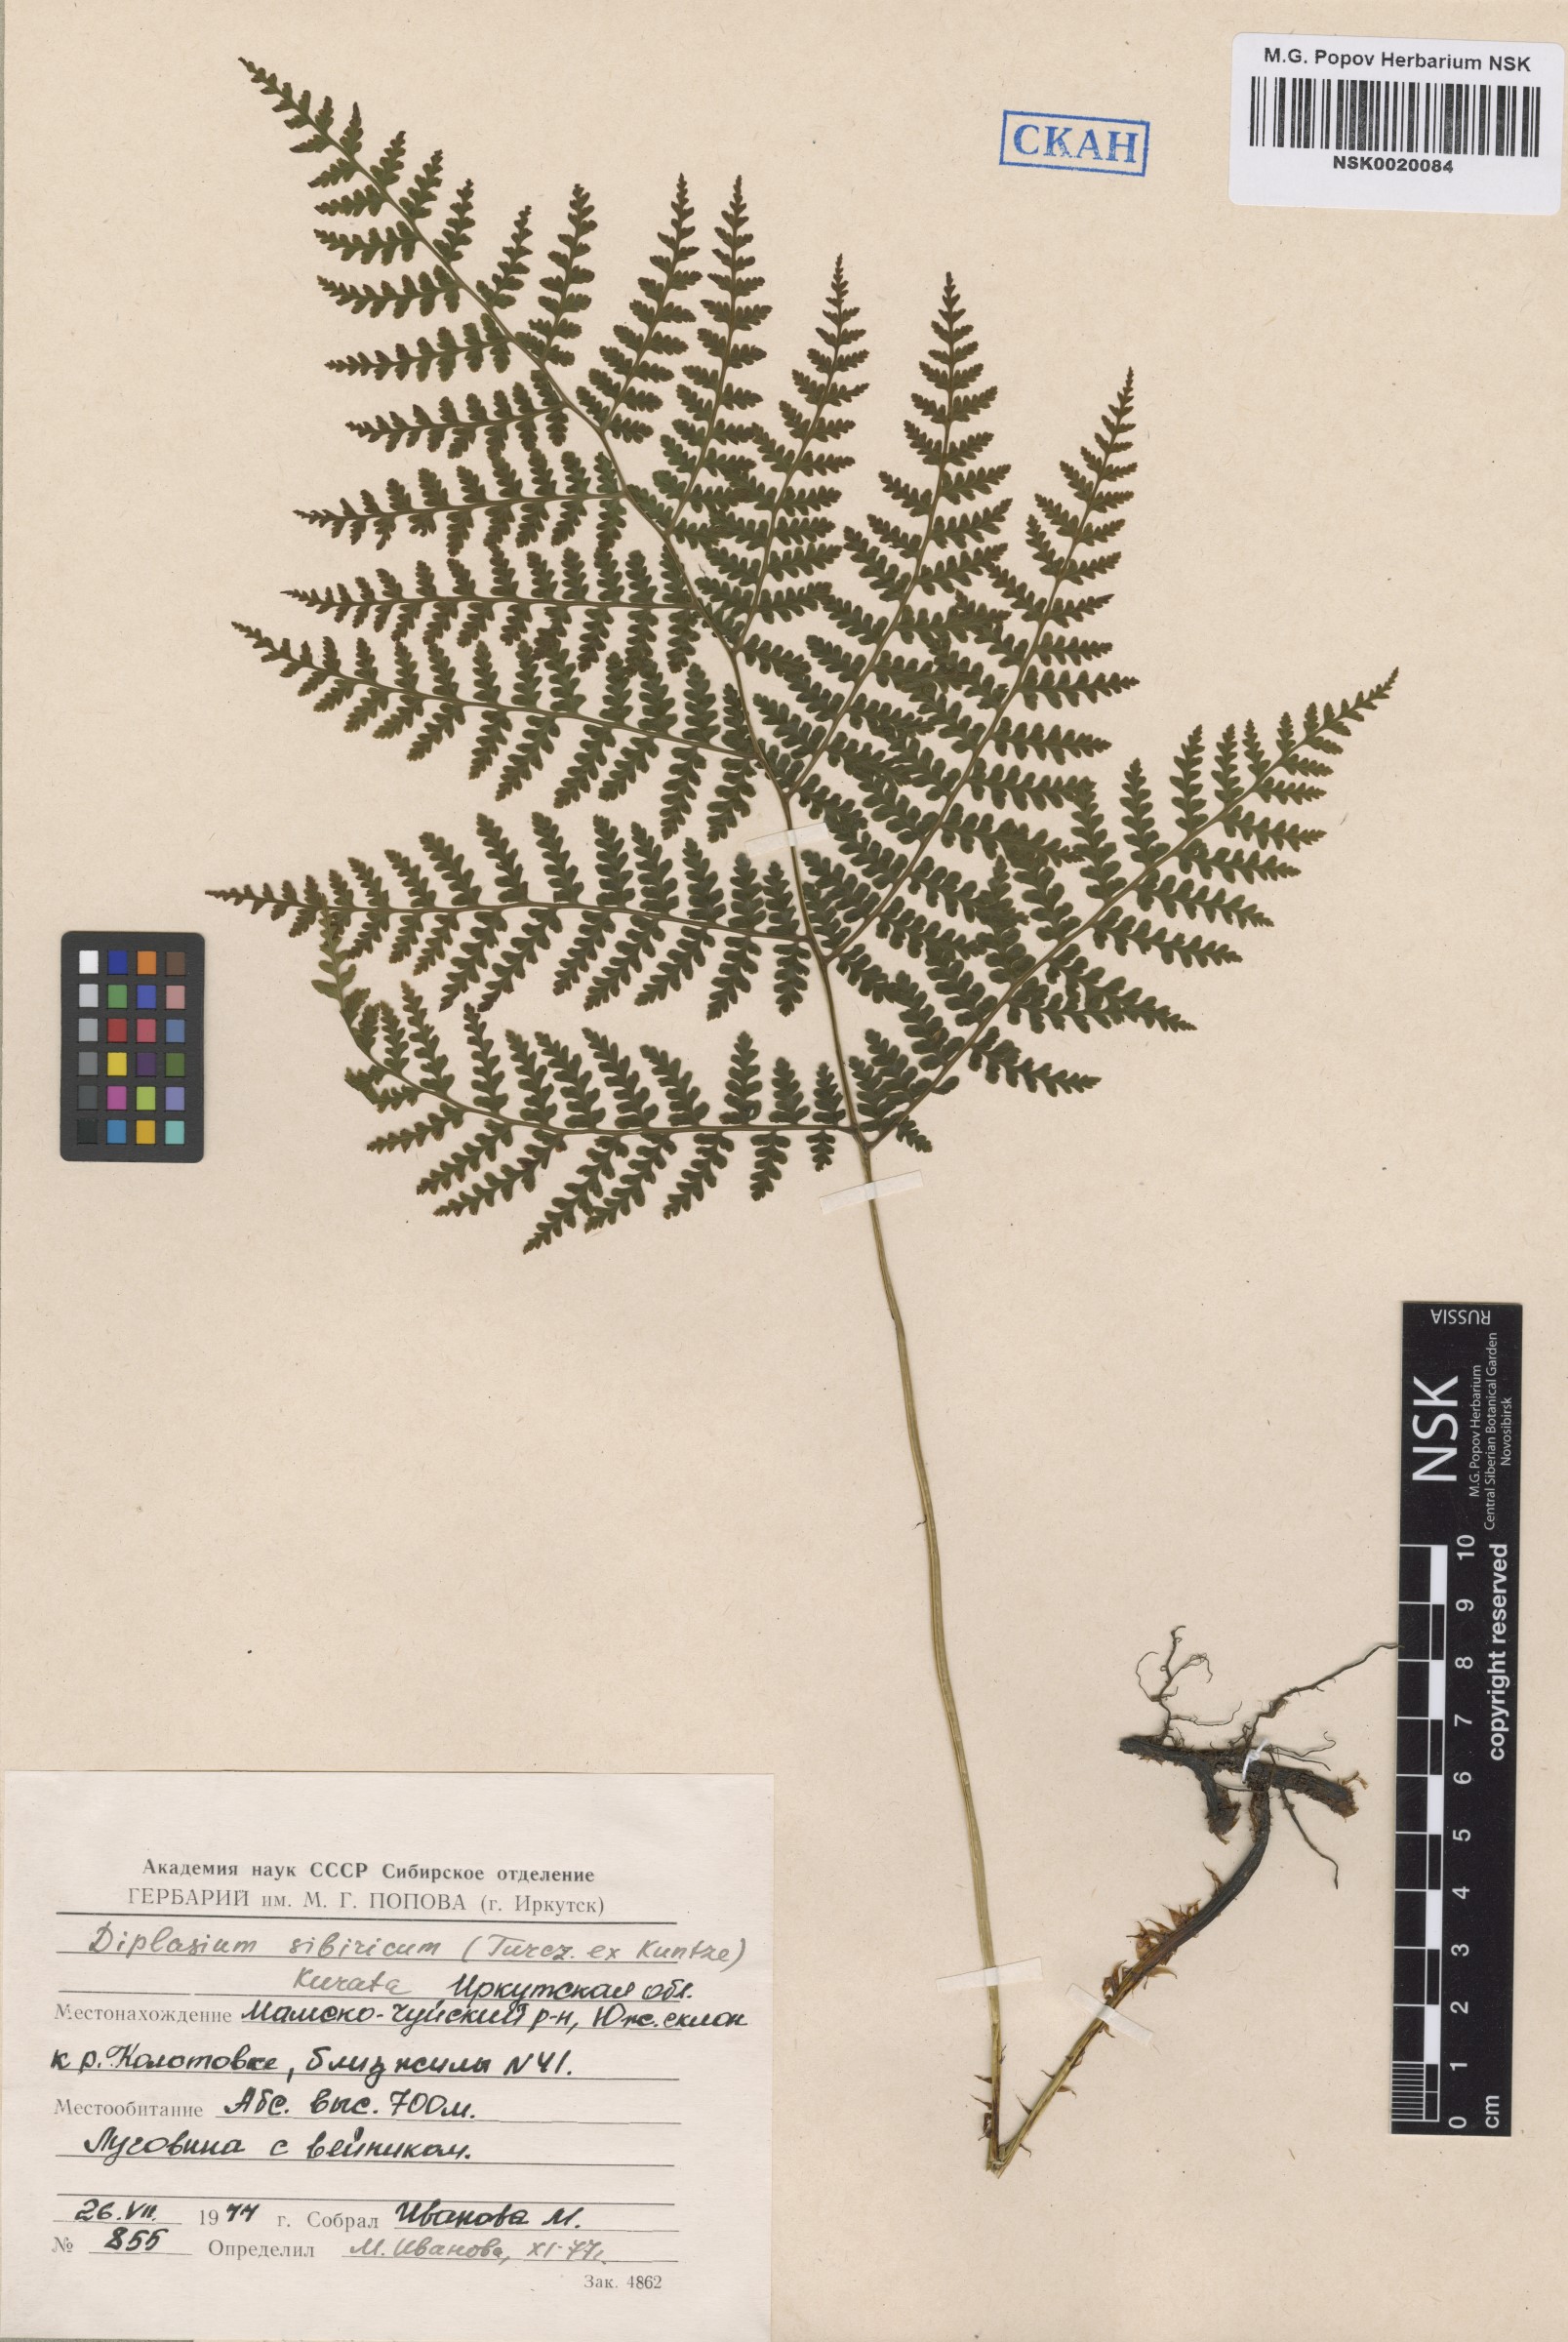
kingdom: Plantae
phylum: Tracheophyta
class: Polypodiopsida
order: Polypodiales
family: Athyriaceae
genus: Diplazium
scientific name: Diplazium sibiricum
